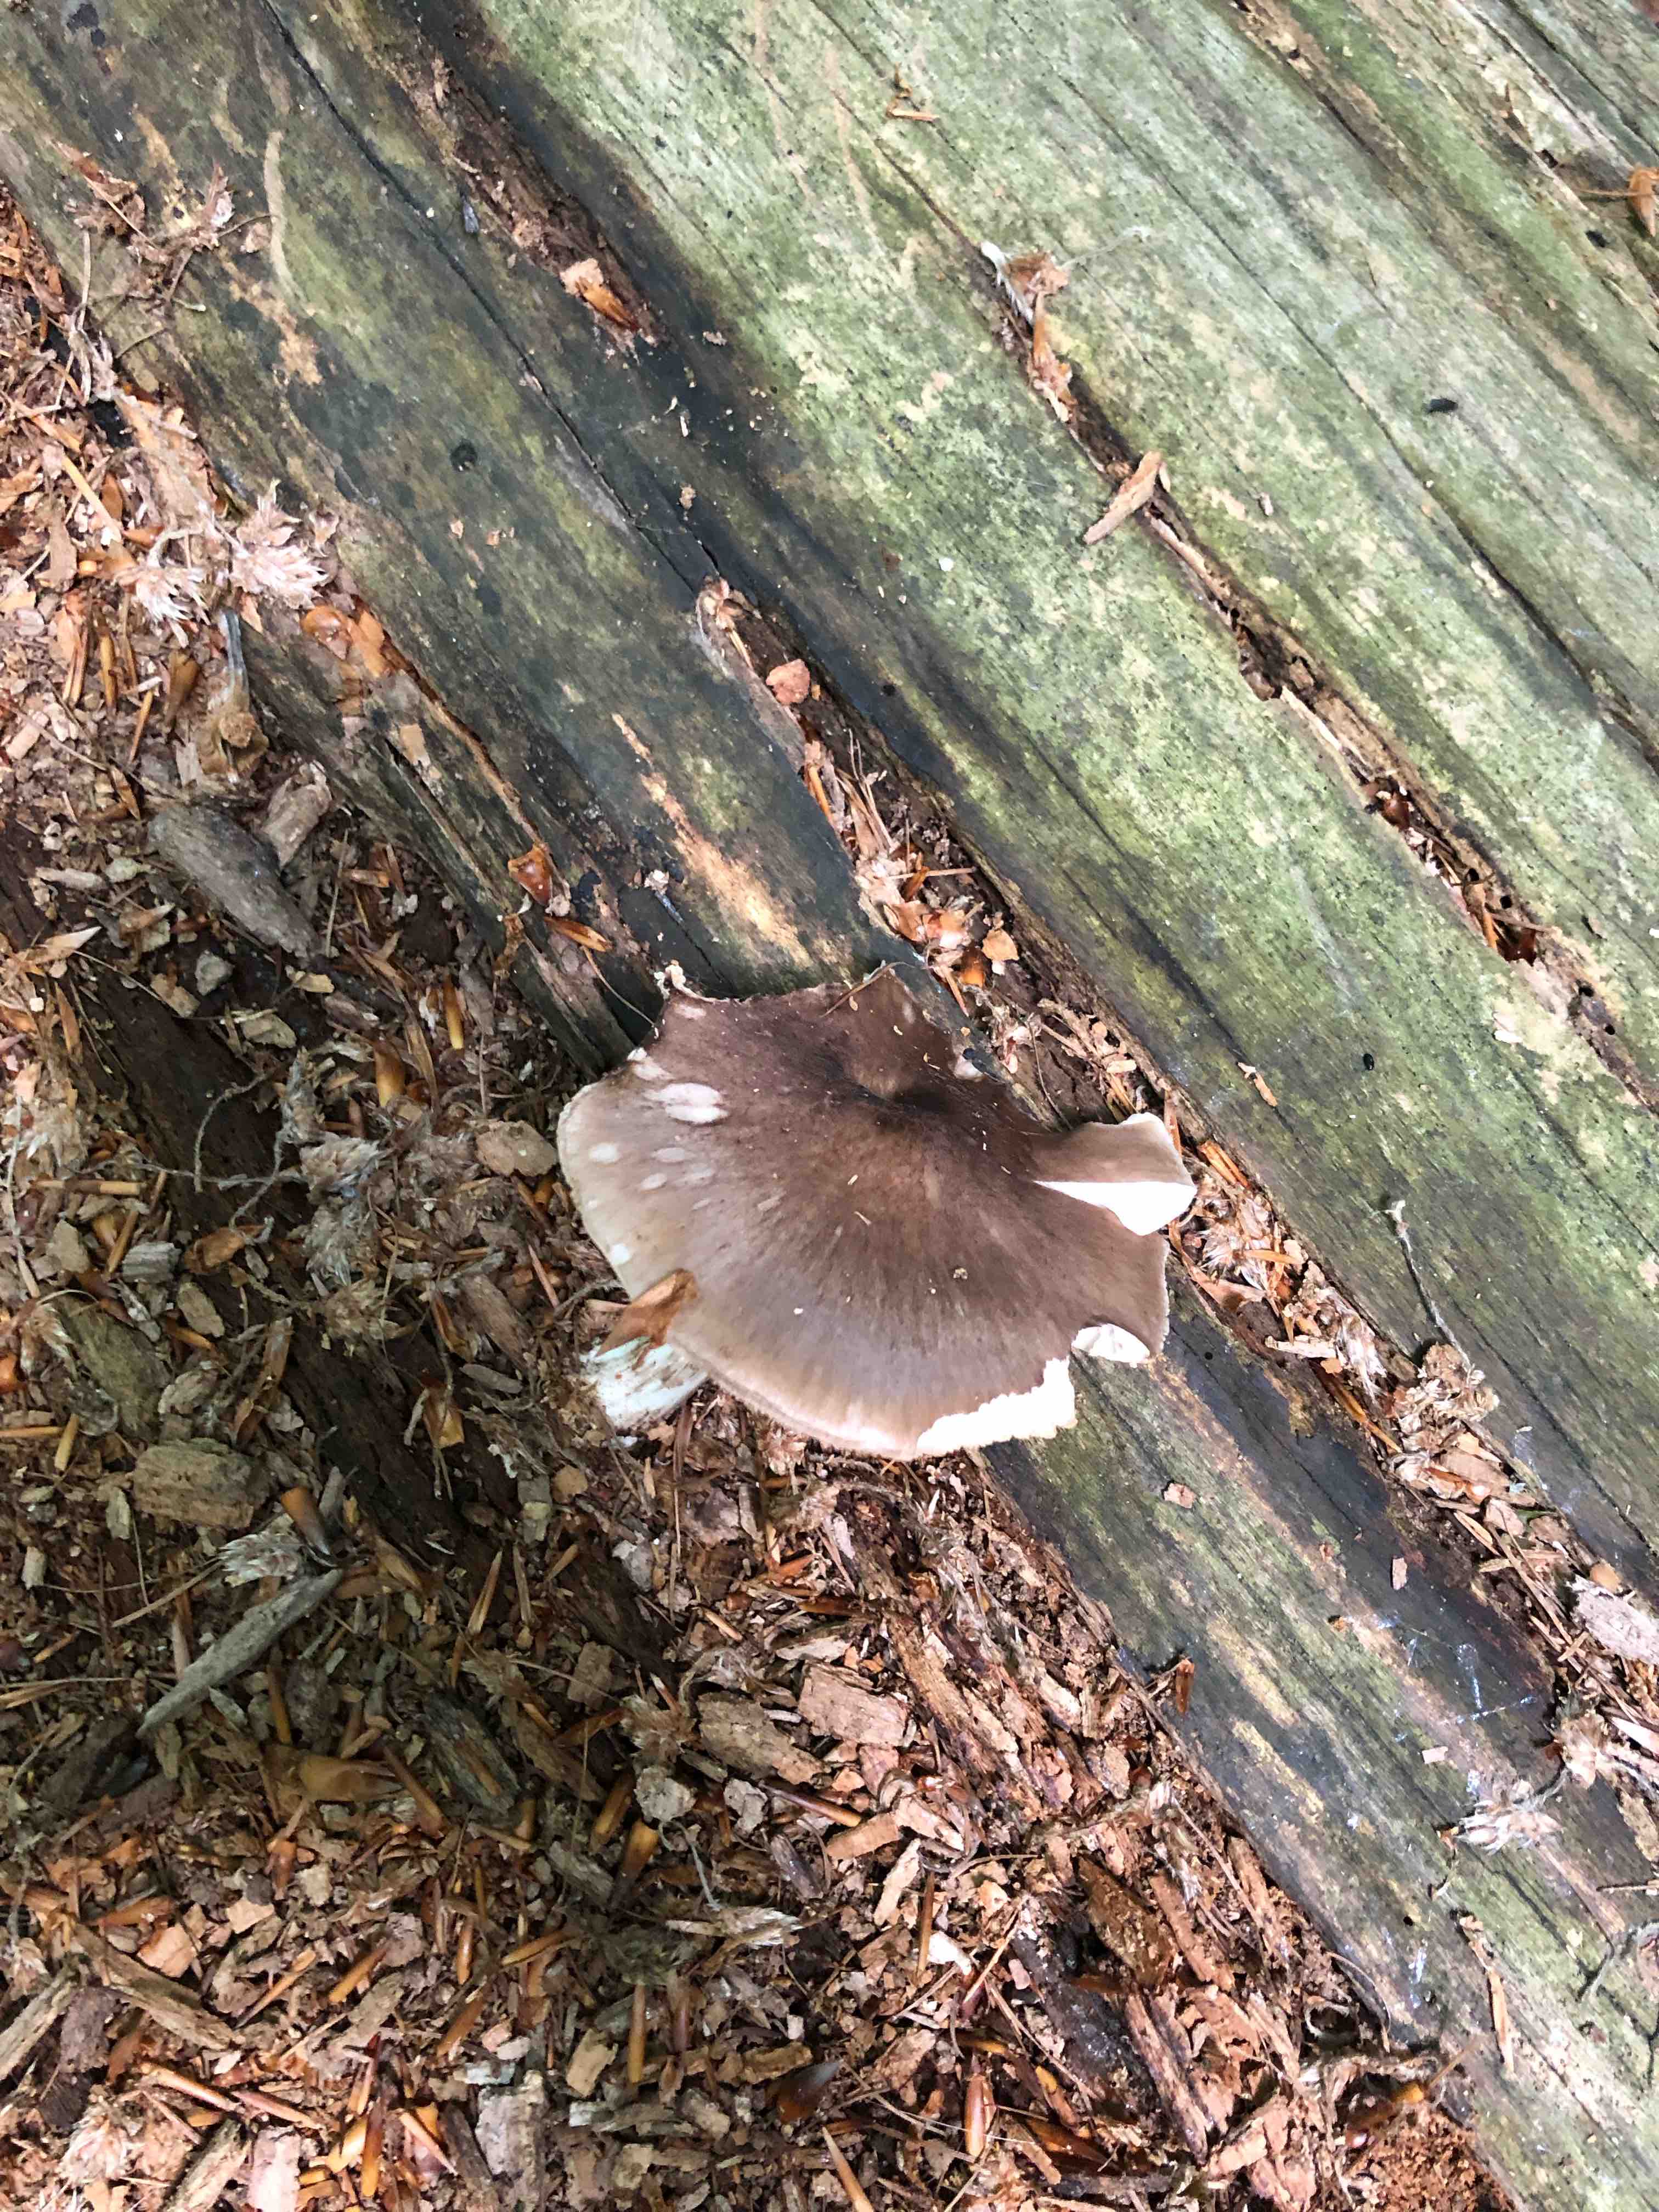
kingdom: Fungi
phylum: Basidiomycota
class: Agaricomycetes
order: Agaricales
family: Pluteaceae
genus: Pluteus
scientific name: Pluteus cervinus
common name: sodfarvet skærmhat
